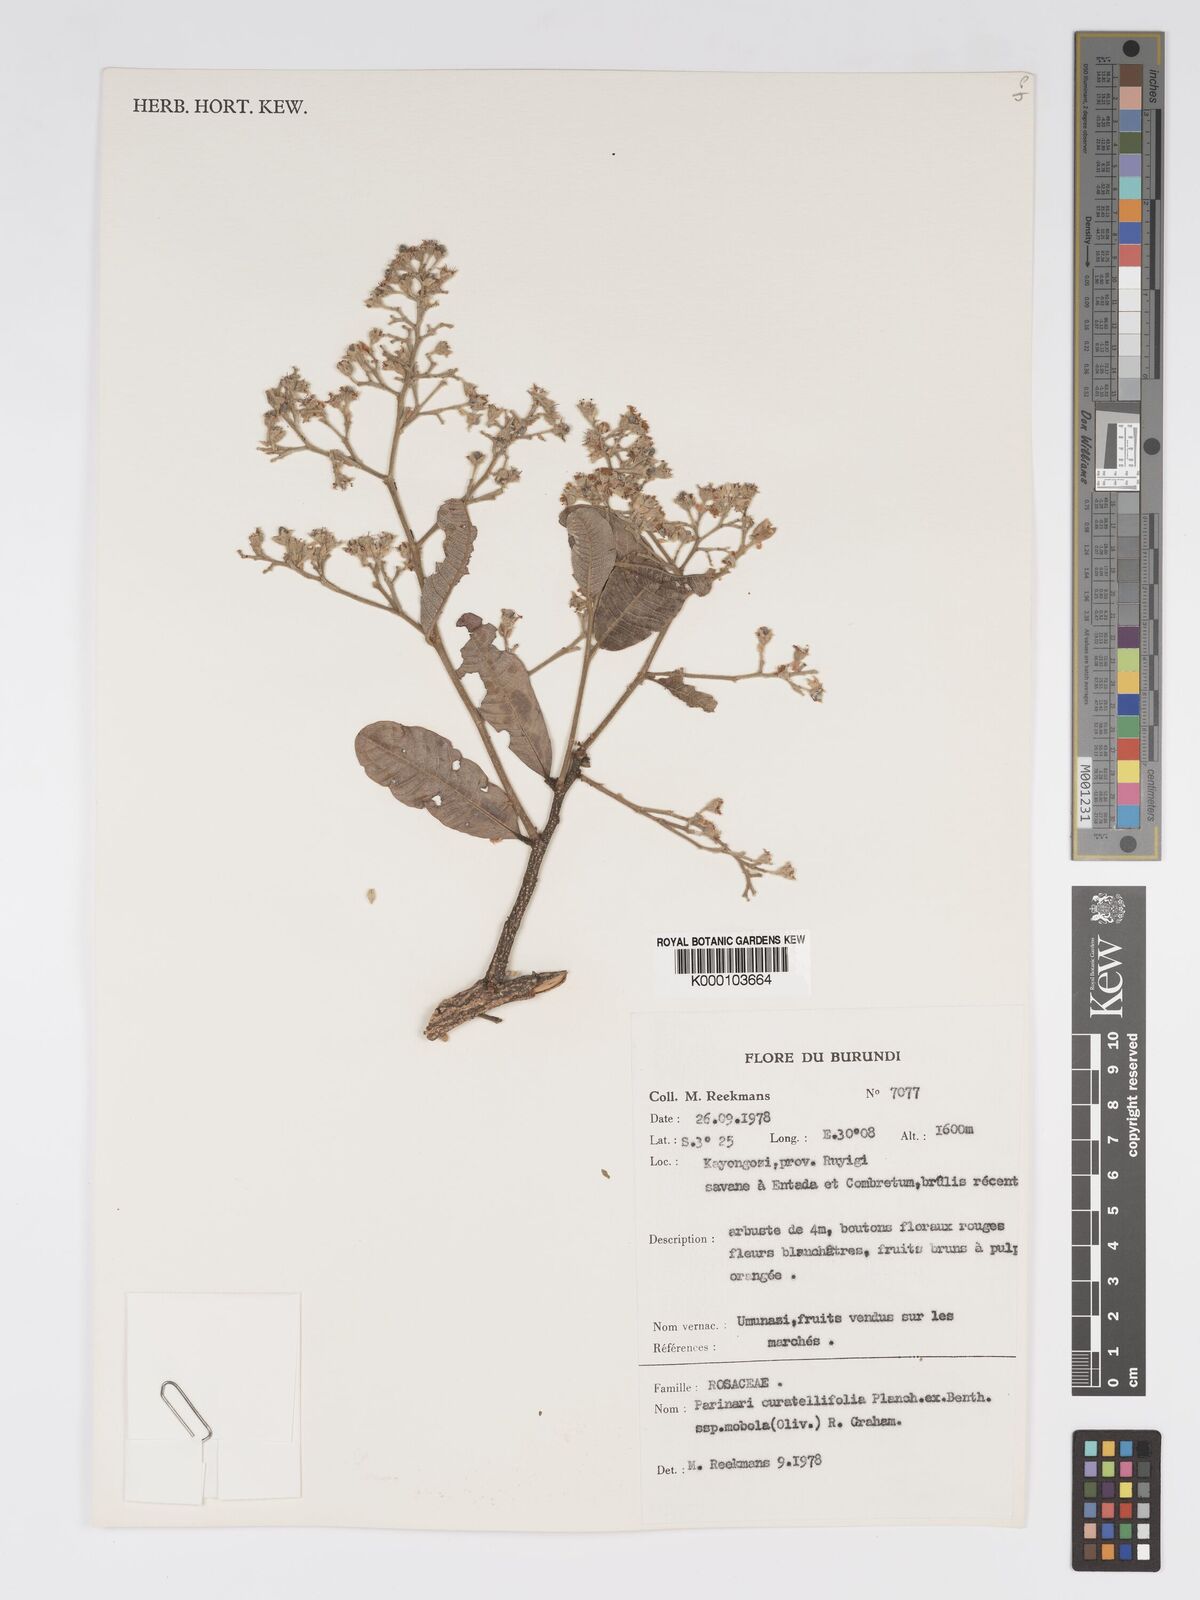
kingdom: Plantae
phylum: Tracheophyta
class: Magnoliopsida
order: Malpighiales
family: Chrysobalanaceae
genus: Parinari
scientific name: Parinari curatellifolia
